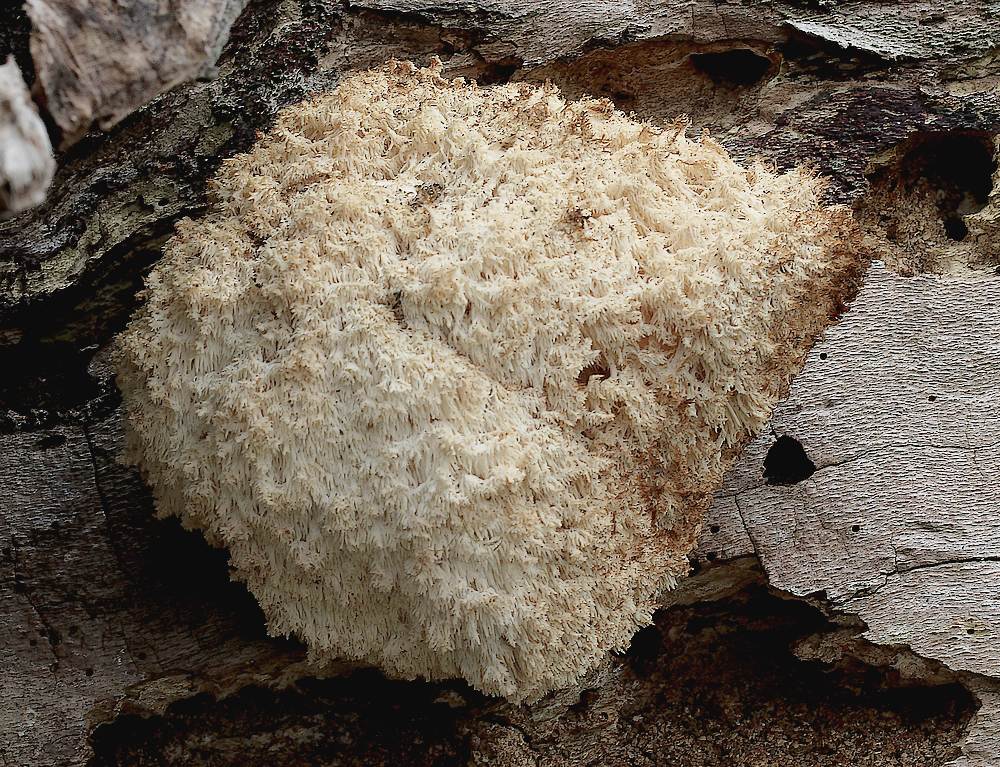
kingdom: Fungi
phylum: Basidiomycota
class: Agaricomycetes
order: Russulales
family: Hericiaceae
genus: Hericium
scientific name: Hericium coralloides
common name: koralpigsvamp
